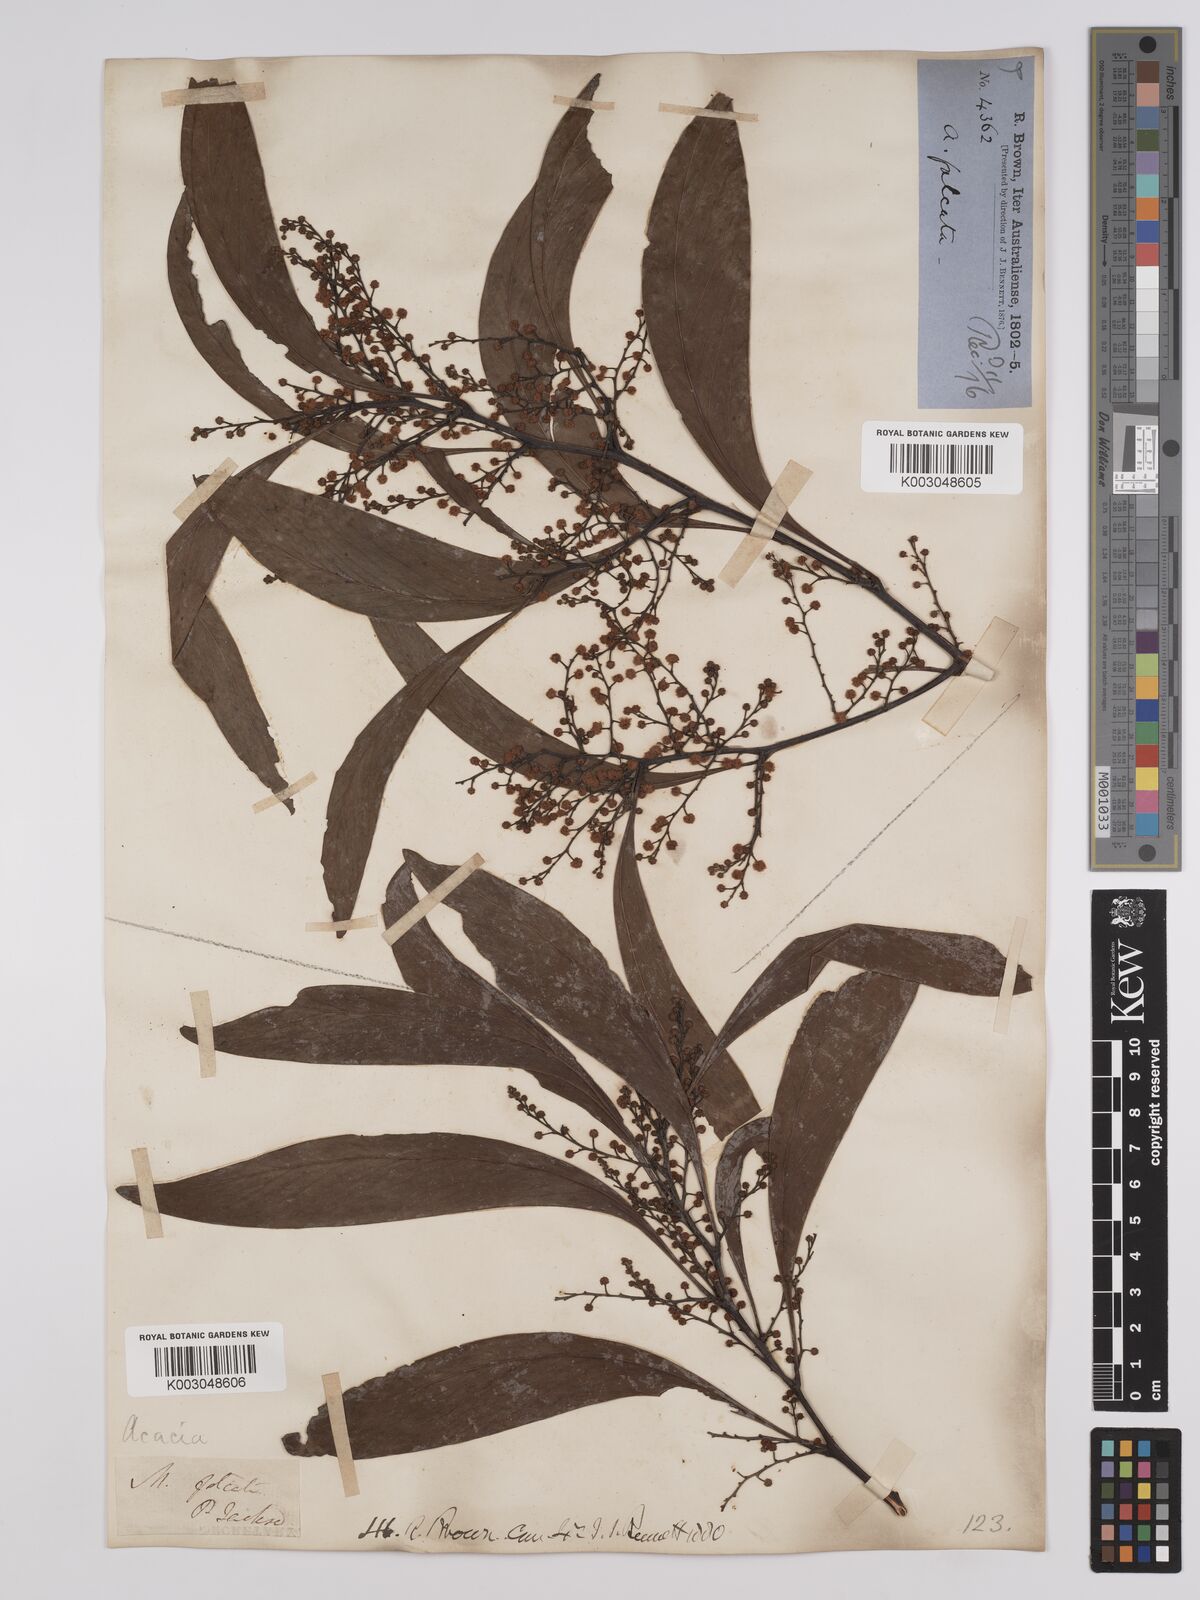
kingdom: Plantae
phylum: Tracheophyta
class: Magnoliopsida
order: Fabales
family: Fabaceae
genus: Acacia
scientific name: Acacia falcata
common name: Burra acacia
